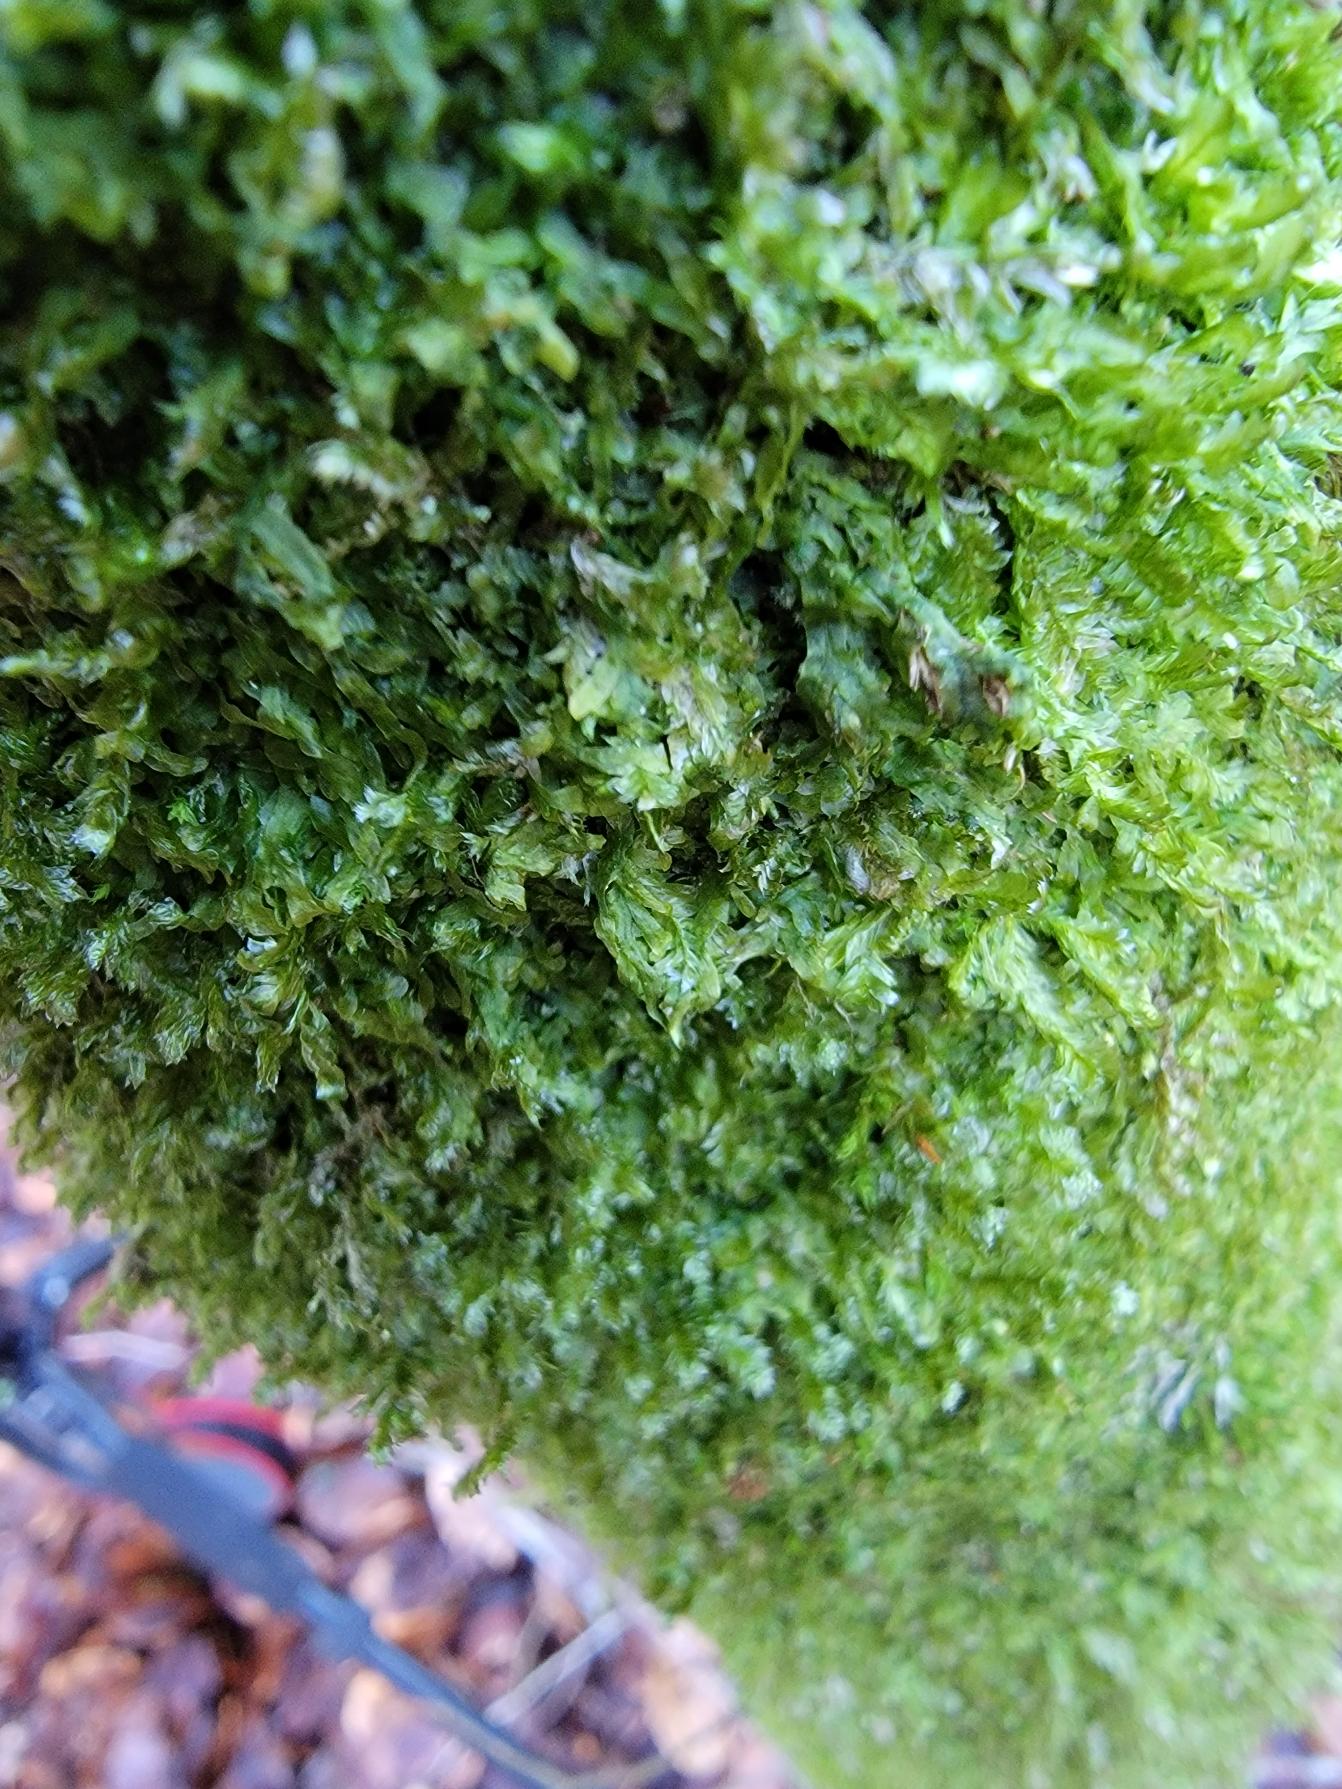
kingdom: Plantae
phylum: Bryophyta
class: Bryopsida
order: Hypnales
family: Neckeraceae
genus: Neckera
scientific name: Neckera pumila
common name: Lav fladmos
